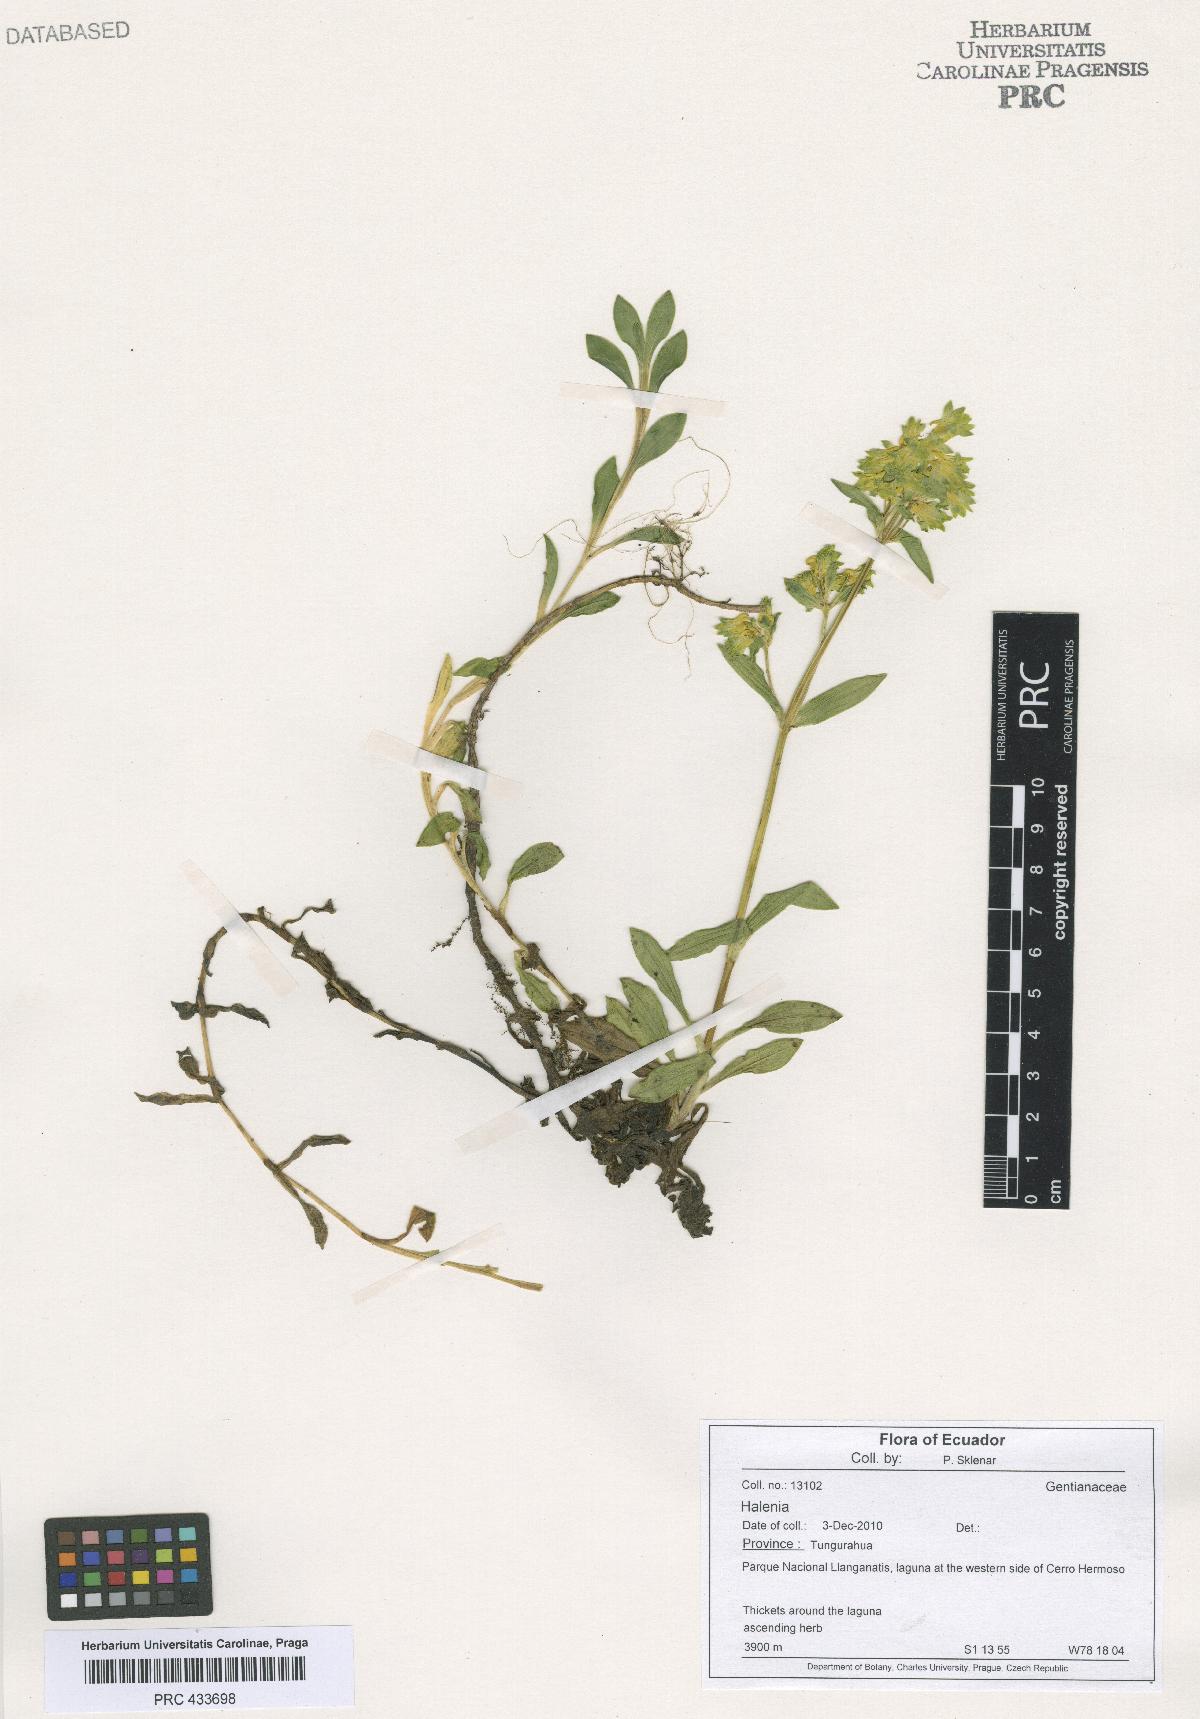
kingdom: Plantae
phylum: Tracheophyta
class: Magnoliopsida
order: Gentianales
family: Gentianaceae
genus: Halenia
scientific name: Halenia
